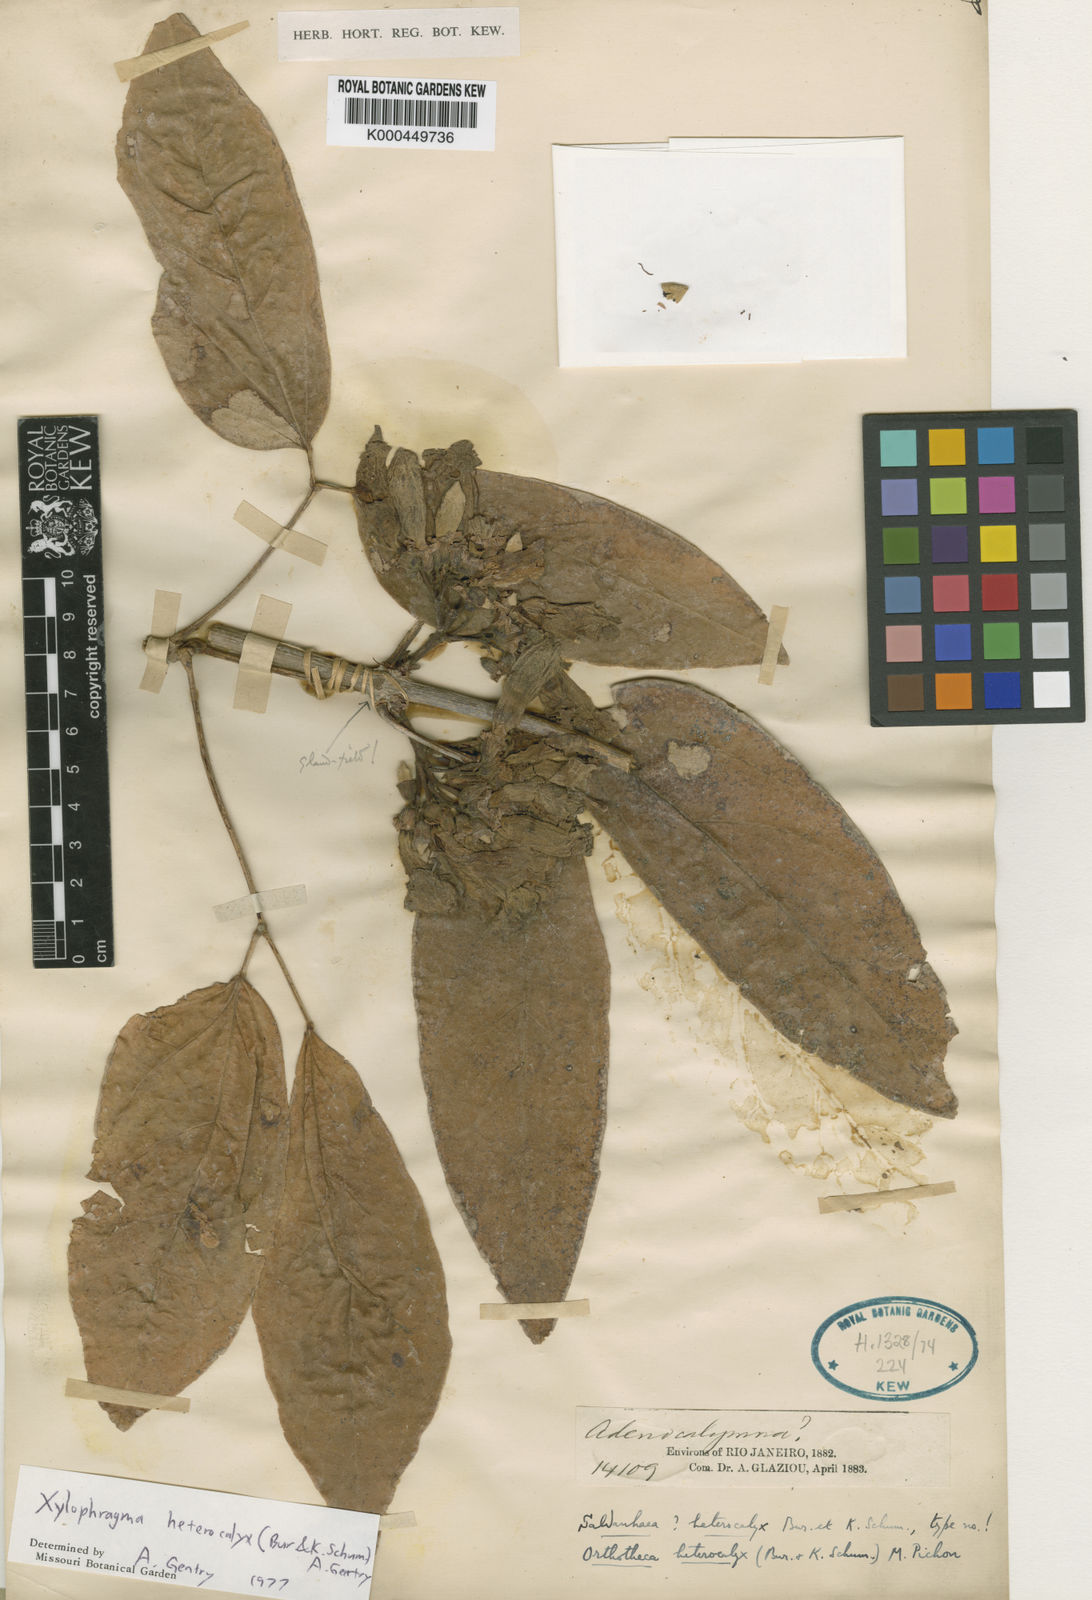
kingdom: Plantae
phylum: Tracheophyta
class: Magnoliopsida
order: Lamiales
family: Bignoniaceae
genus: Xylophragma
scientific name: Xylophragma heterocalyx
